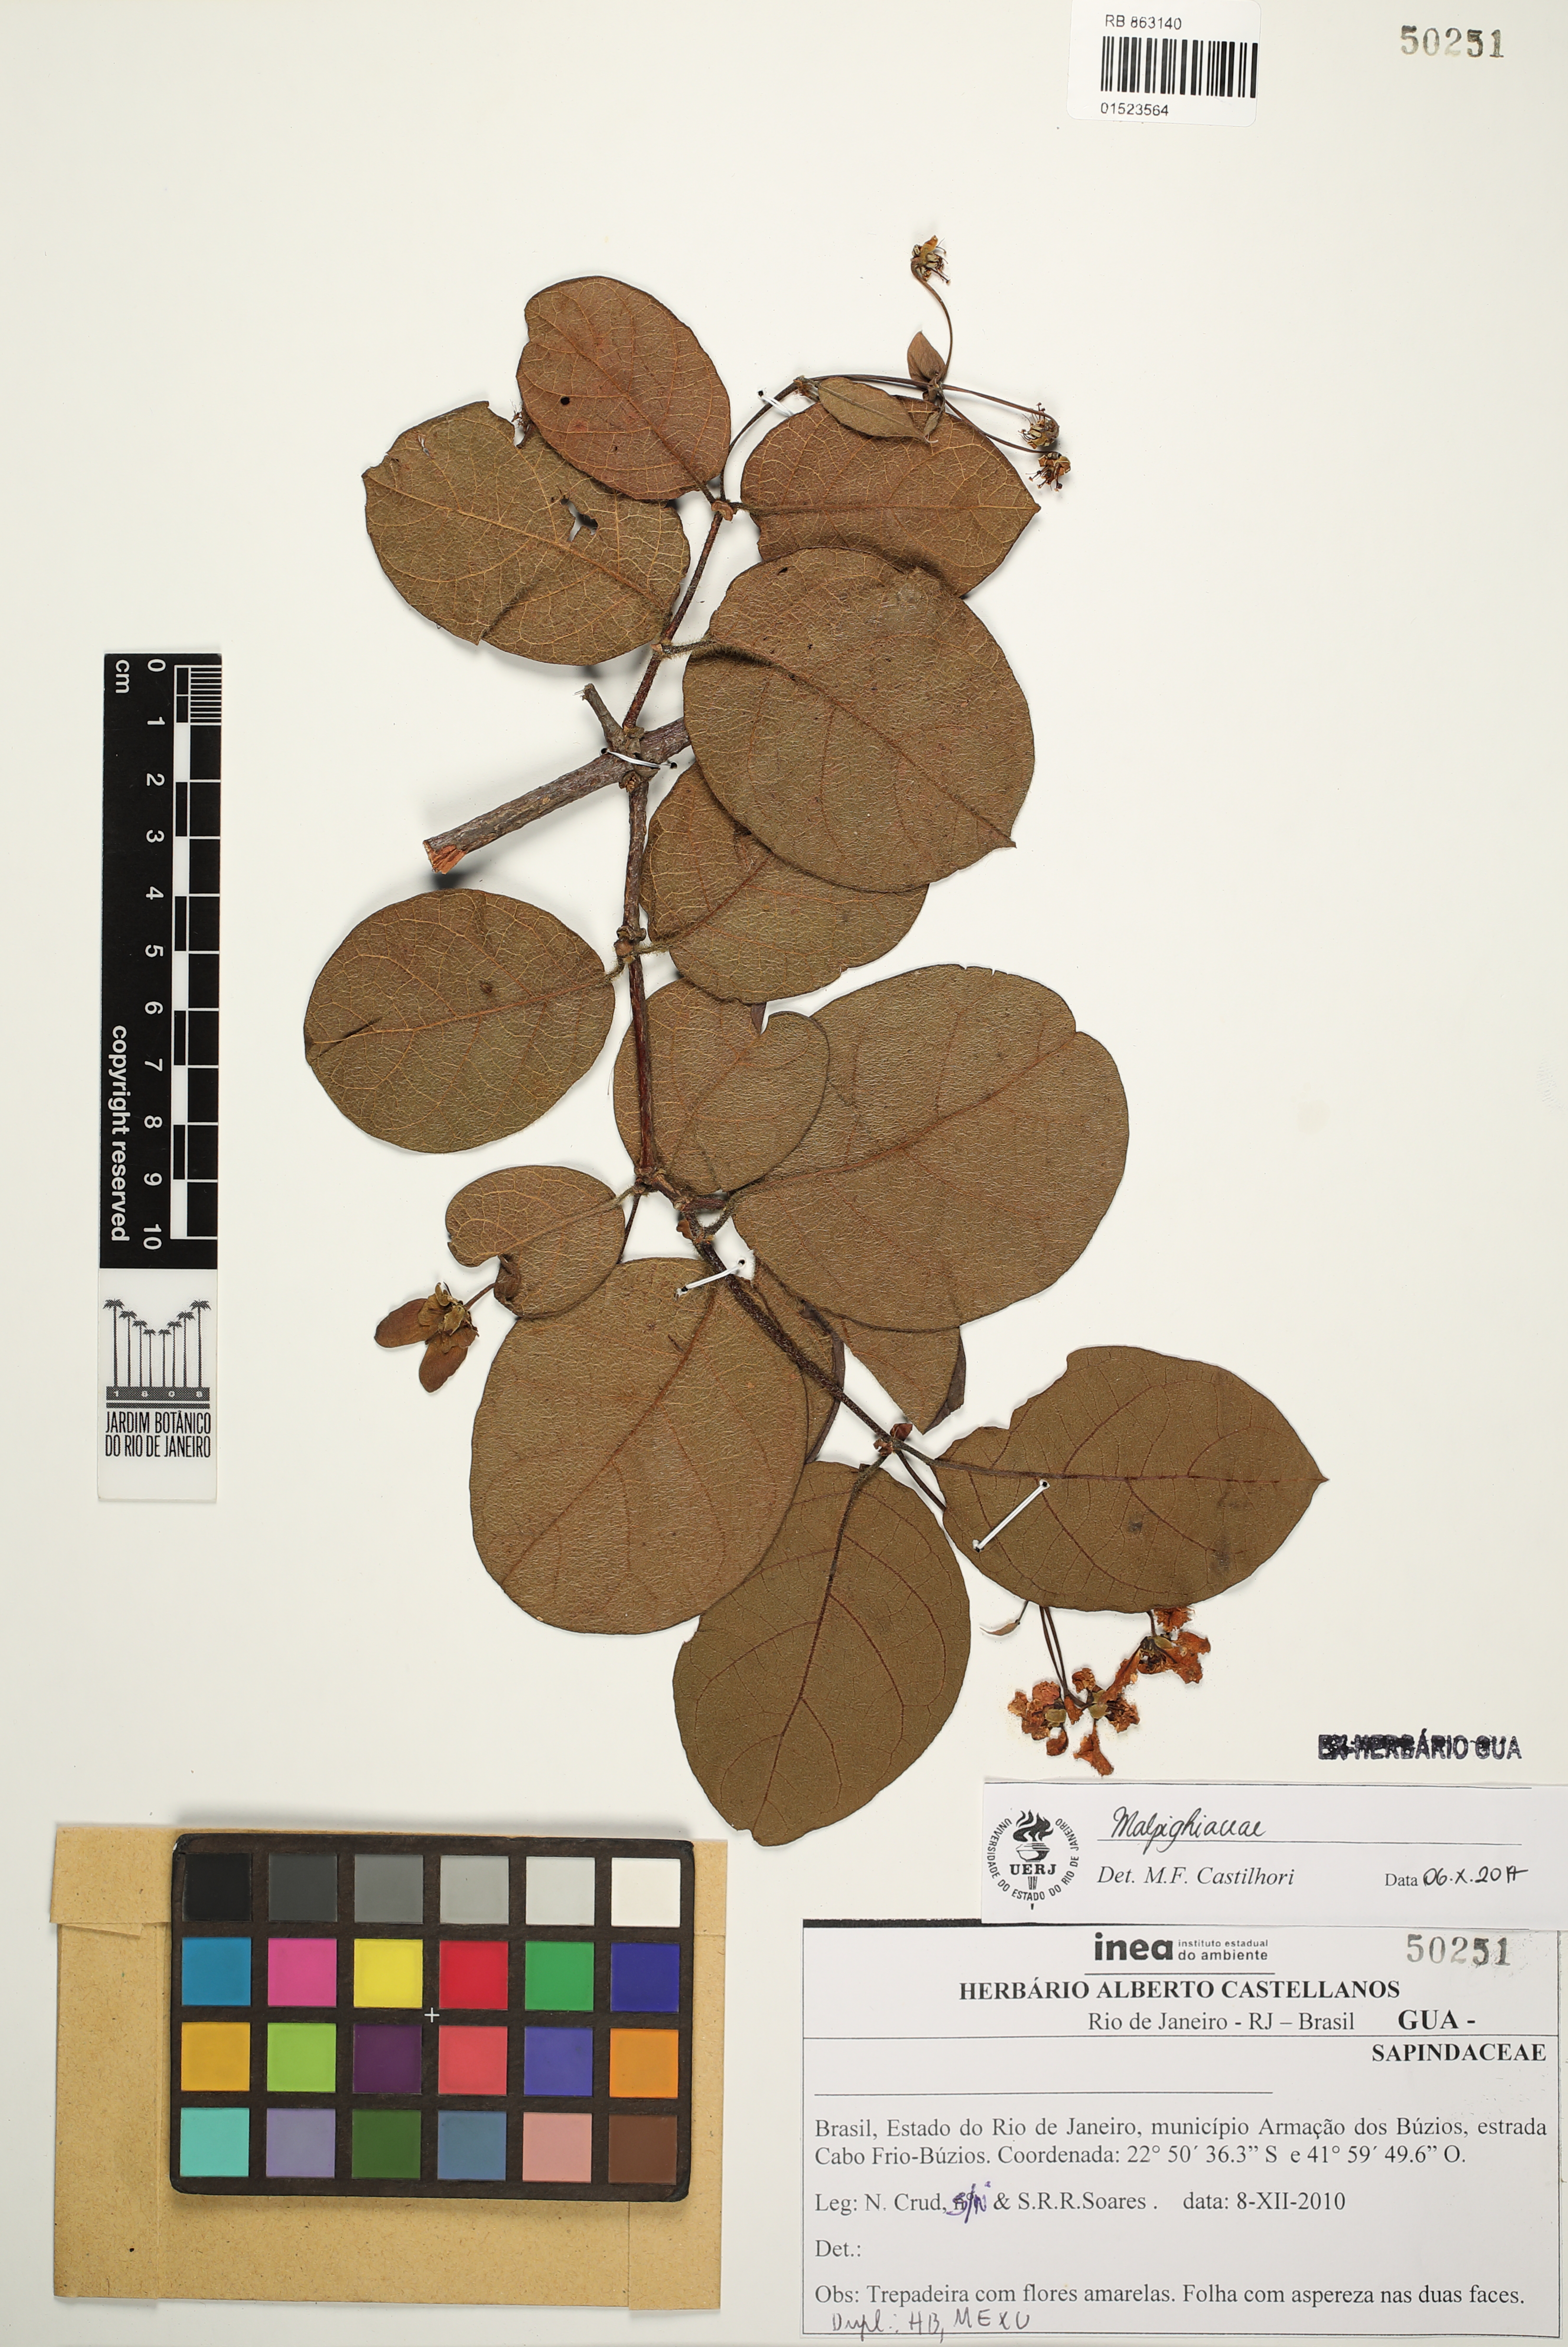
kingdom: Plantae
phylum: Tracheophyta
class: Magnoliopsida
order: Malpighiales
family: Malpighiaceae
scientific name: Malpighiaceae
